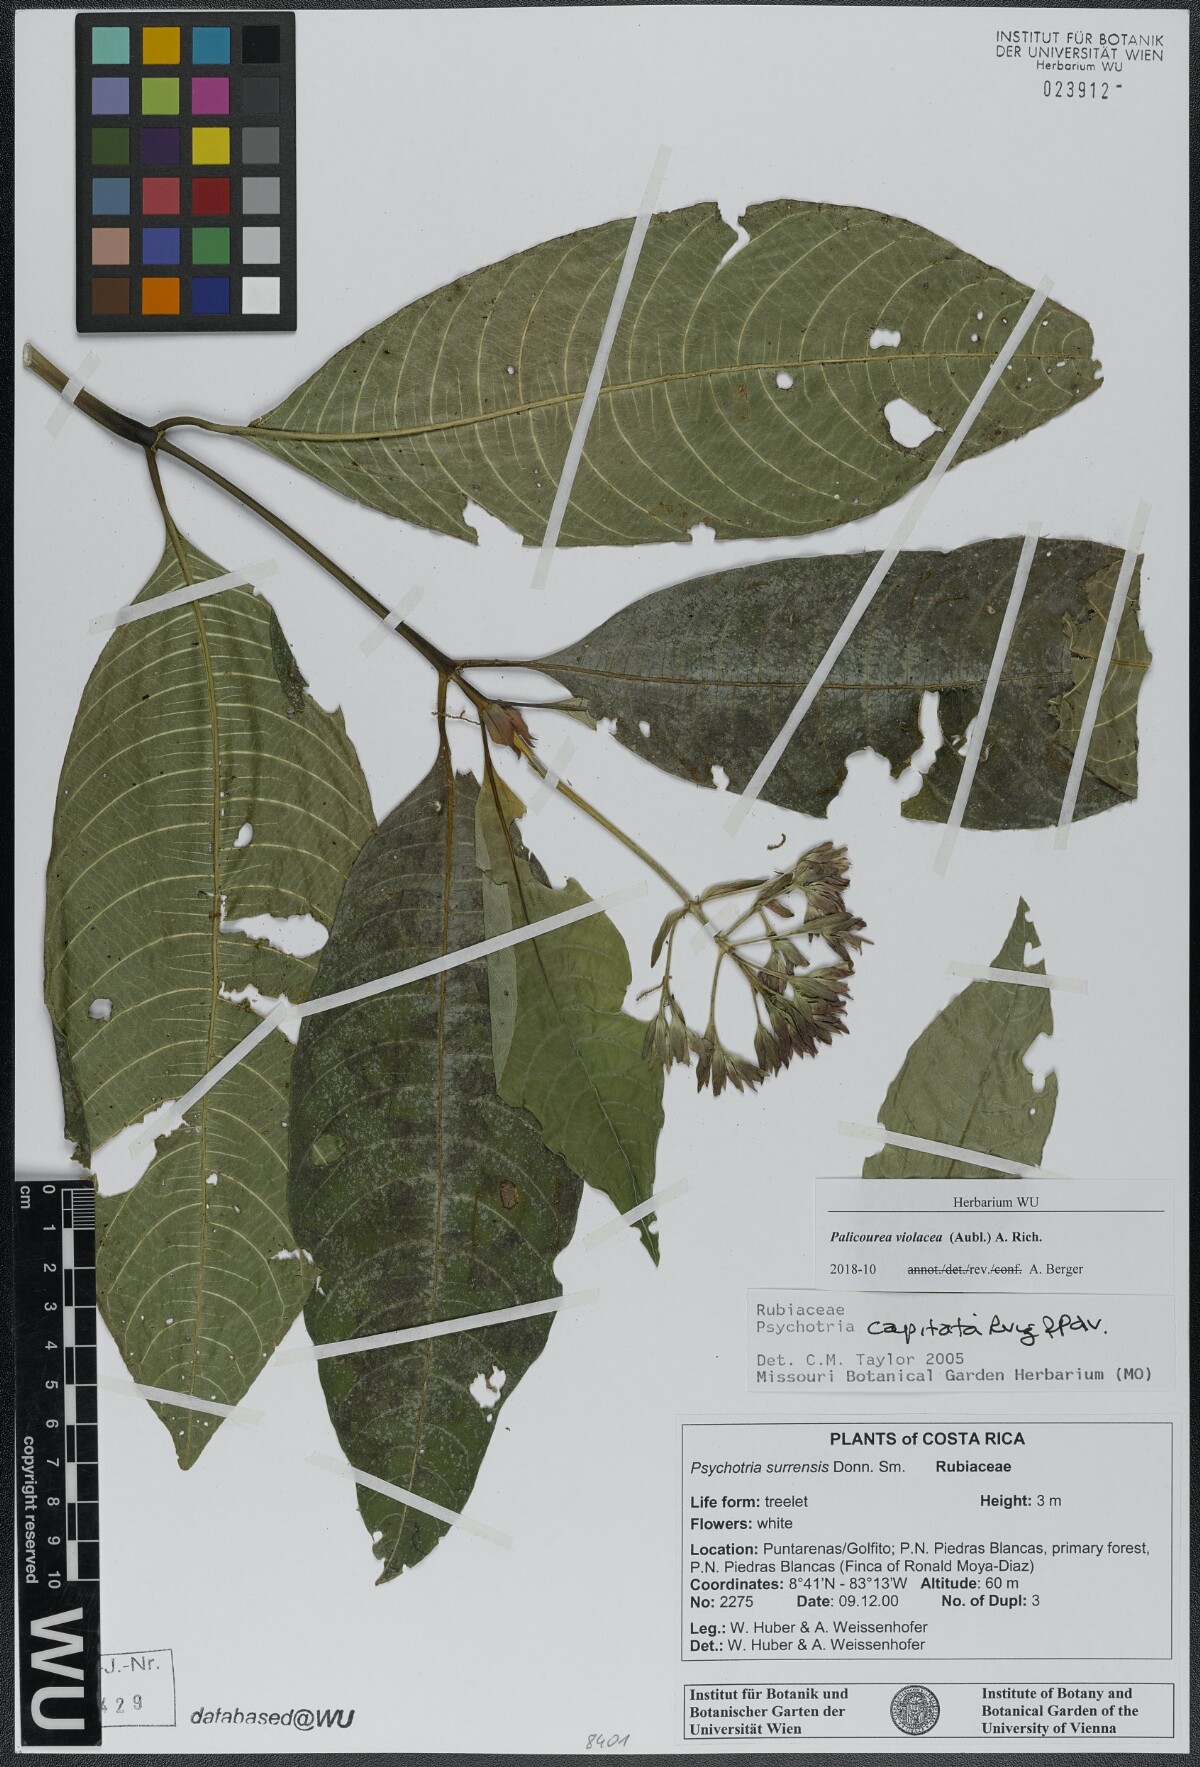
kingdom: Plantae
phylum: Tracheophyta
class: Magnoliopsida
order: Gentianales
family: Rubiaceae
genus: Palicourea
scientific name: Palicourea violacea
